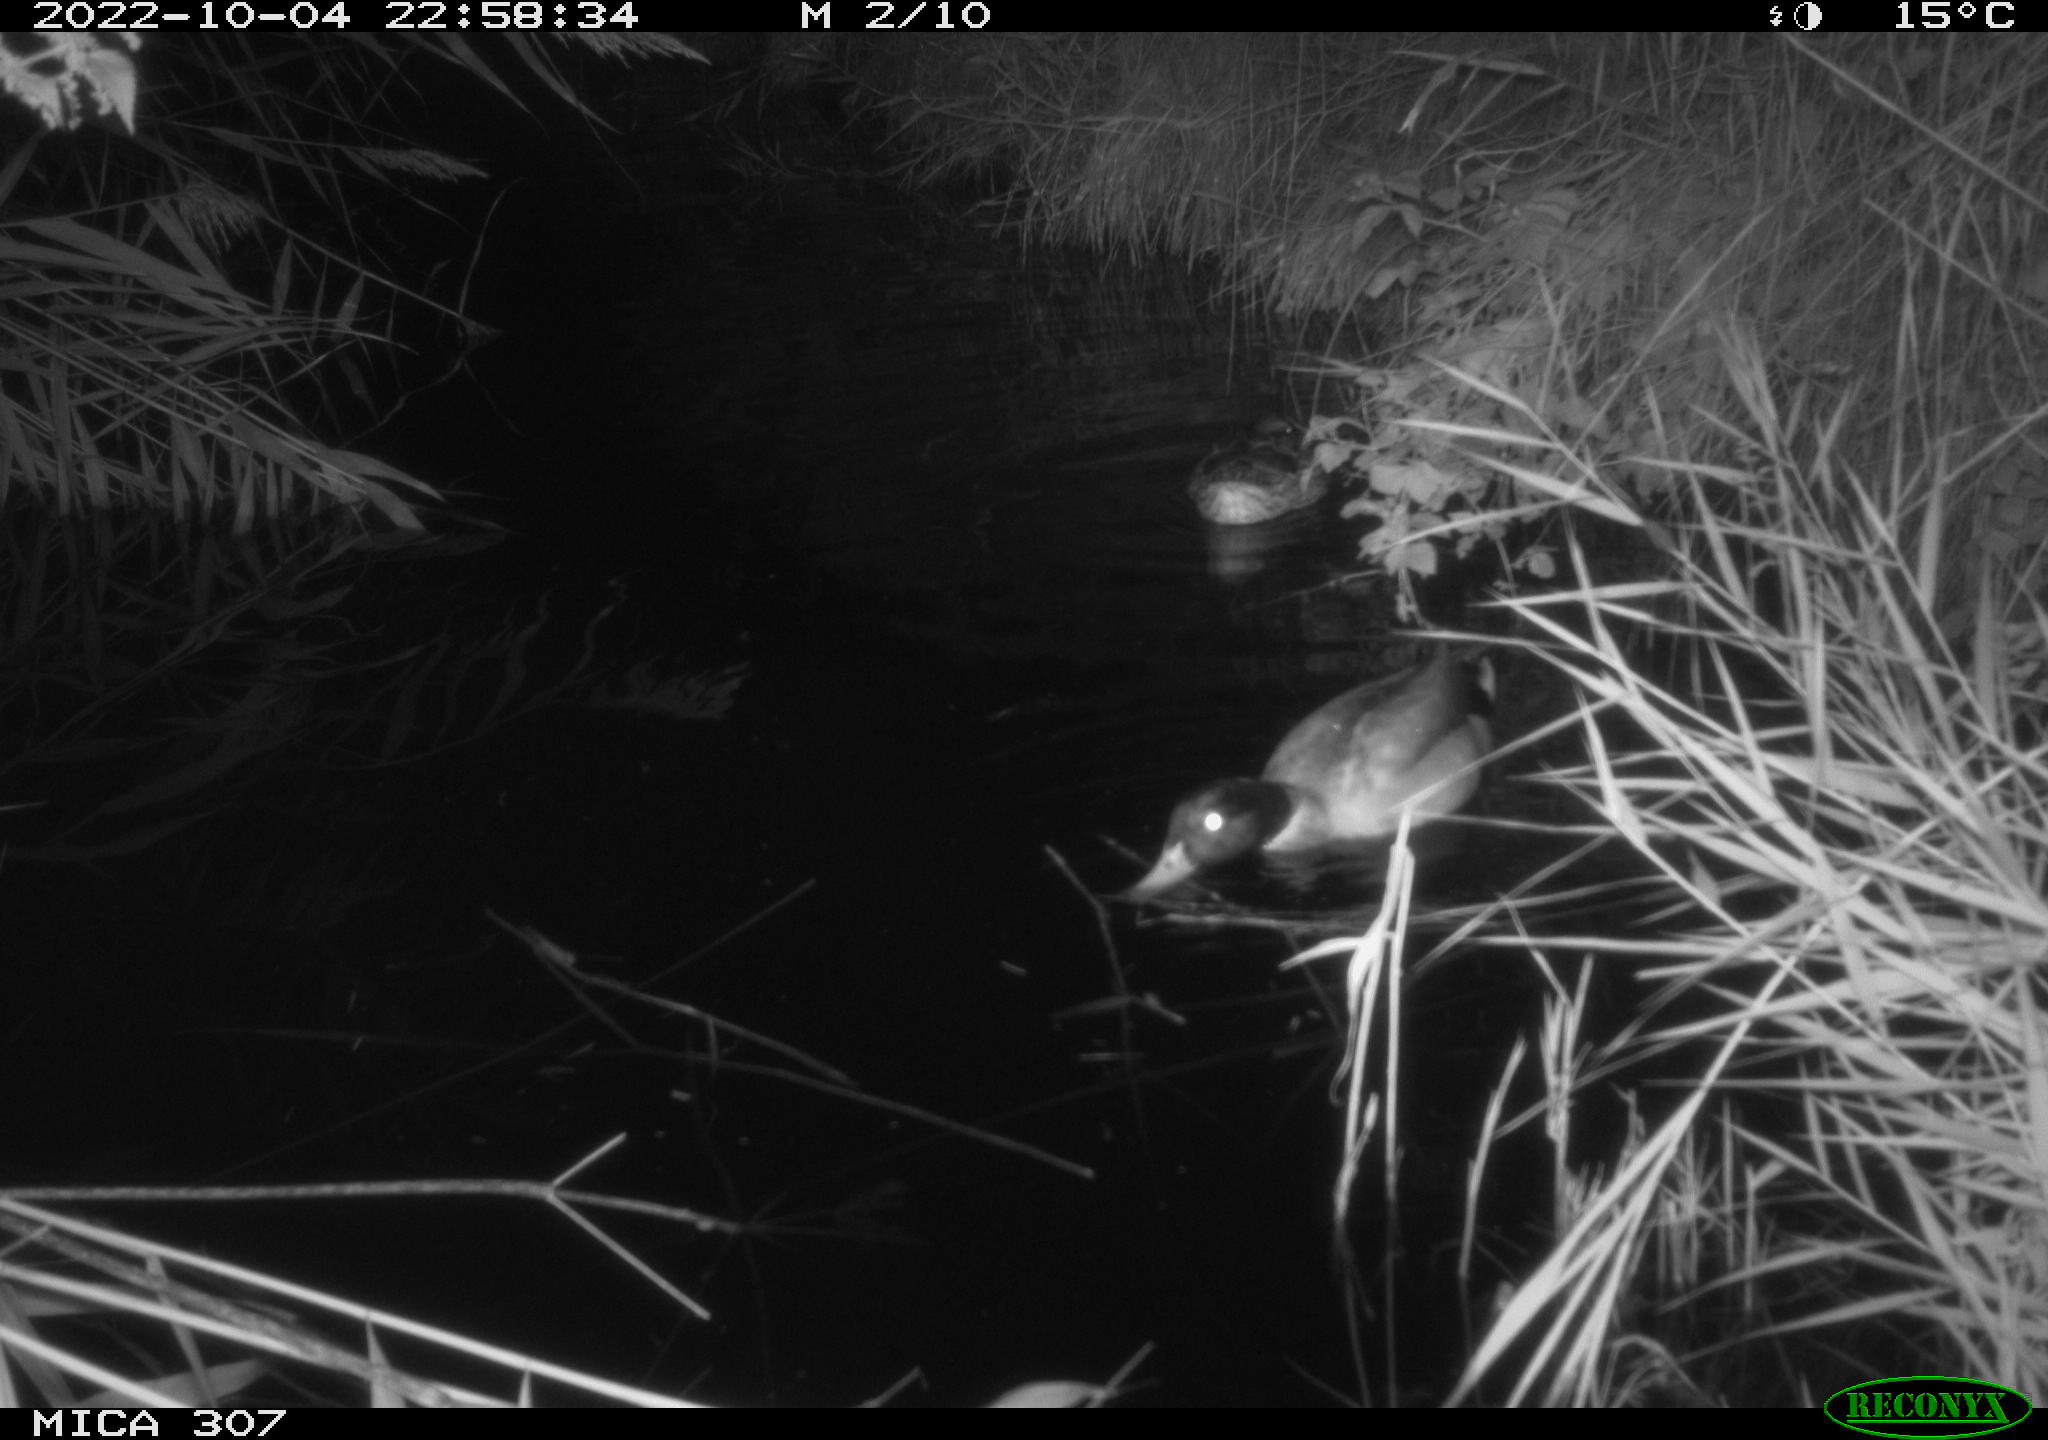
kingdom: Animalia
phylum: Chordata
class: Aves
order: Anseriformes
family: Anatidae
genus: Anas
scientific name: Anas
